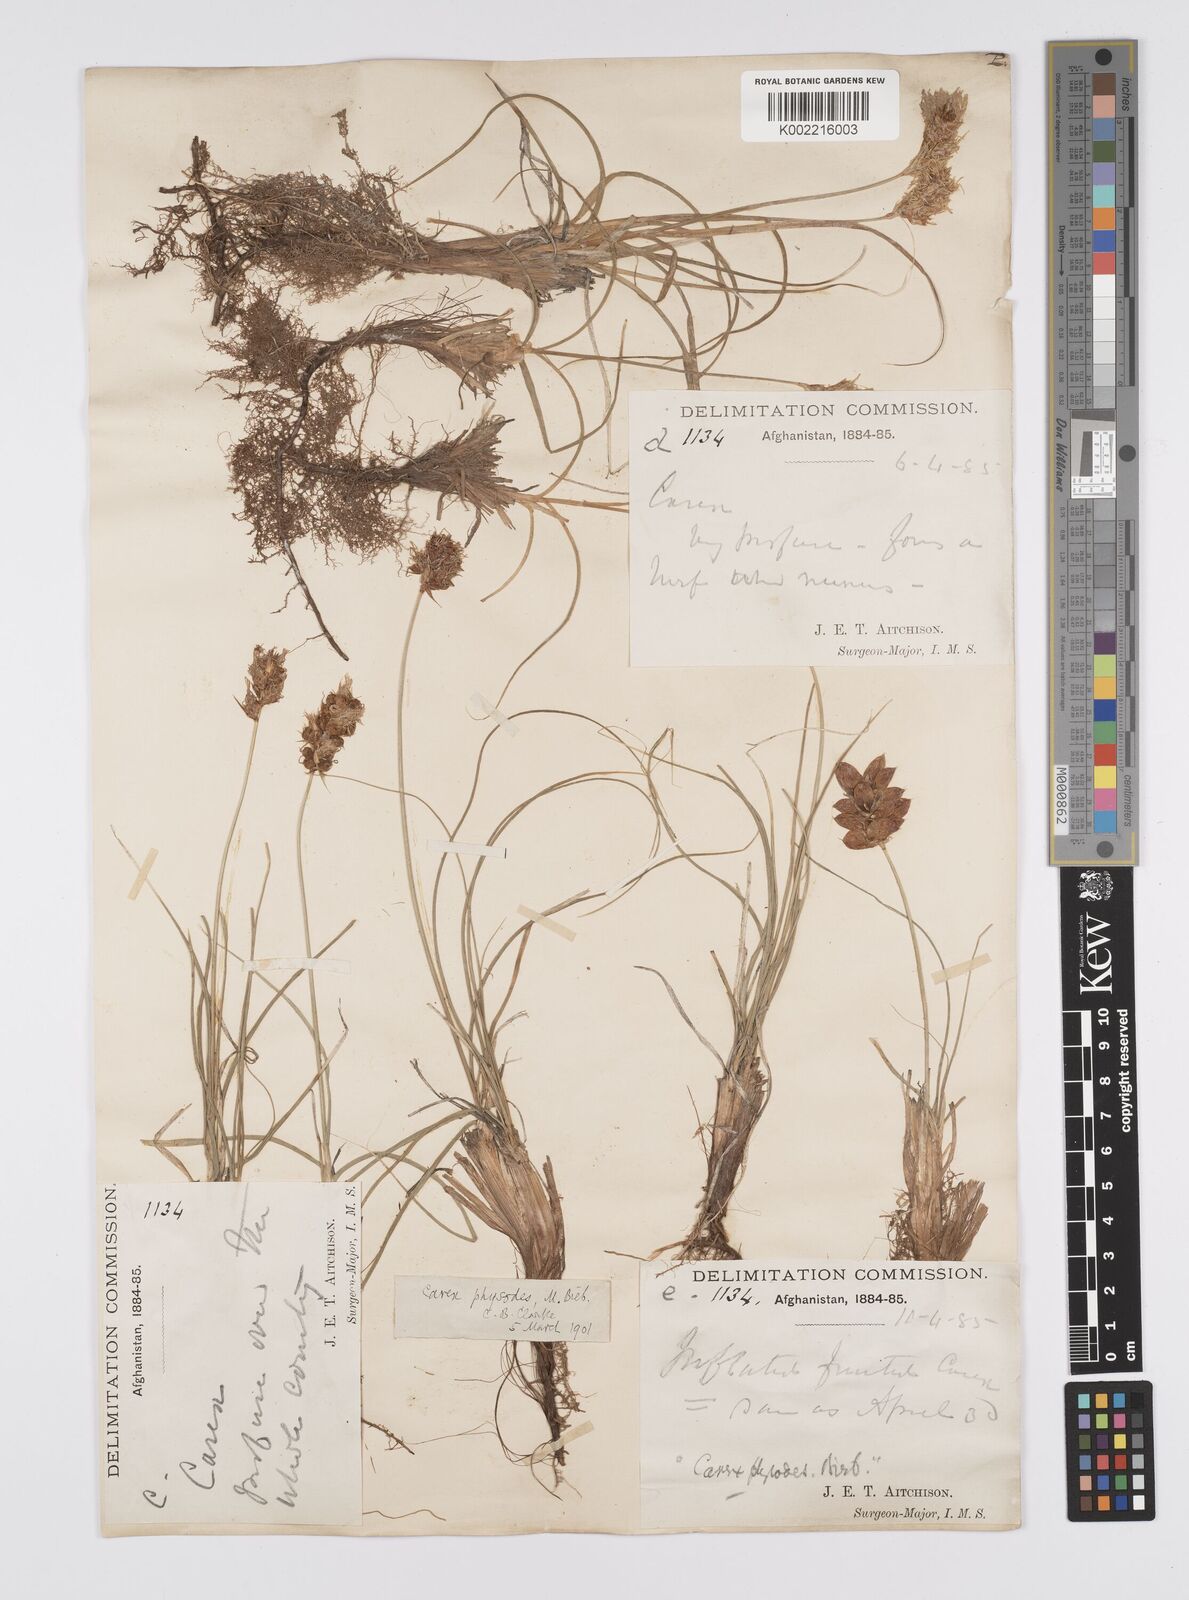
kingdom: Plantae
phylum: Tracheophyta
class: Liliopsida
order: Poales
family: Cyperaceae
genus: Carex
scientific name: Carex physodes
